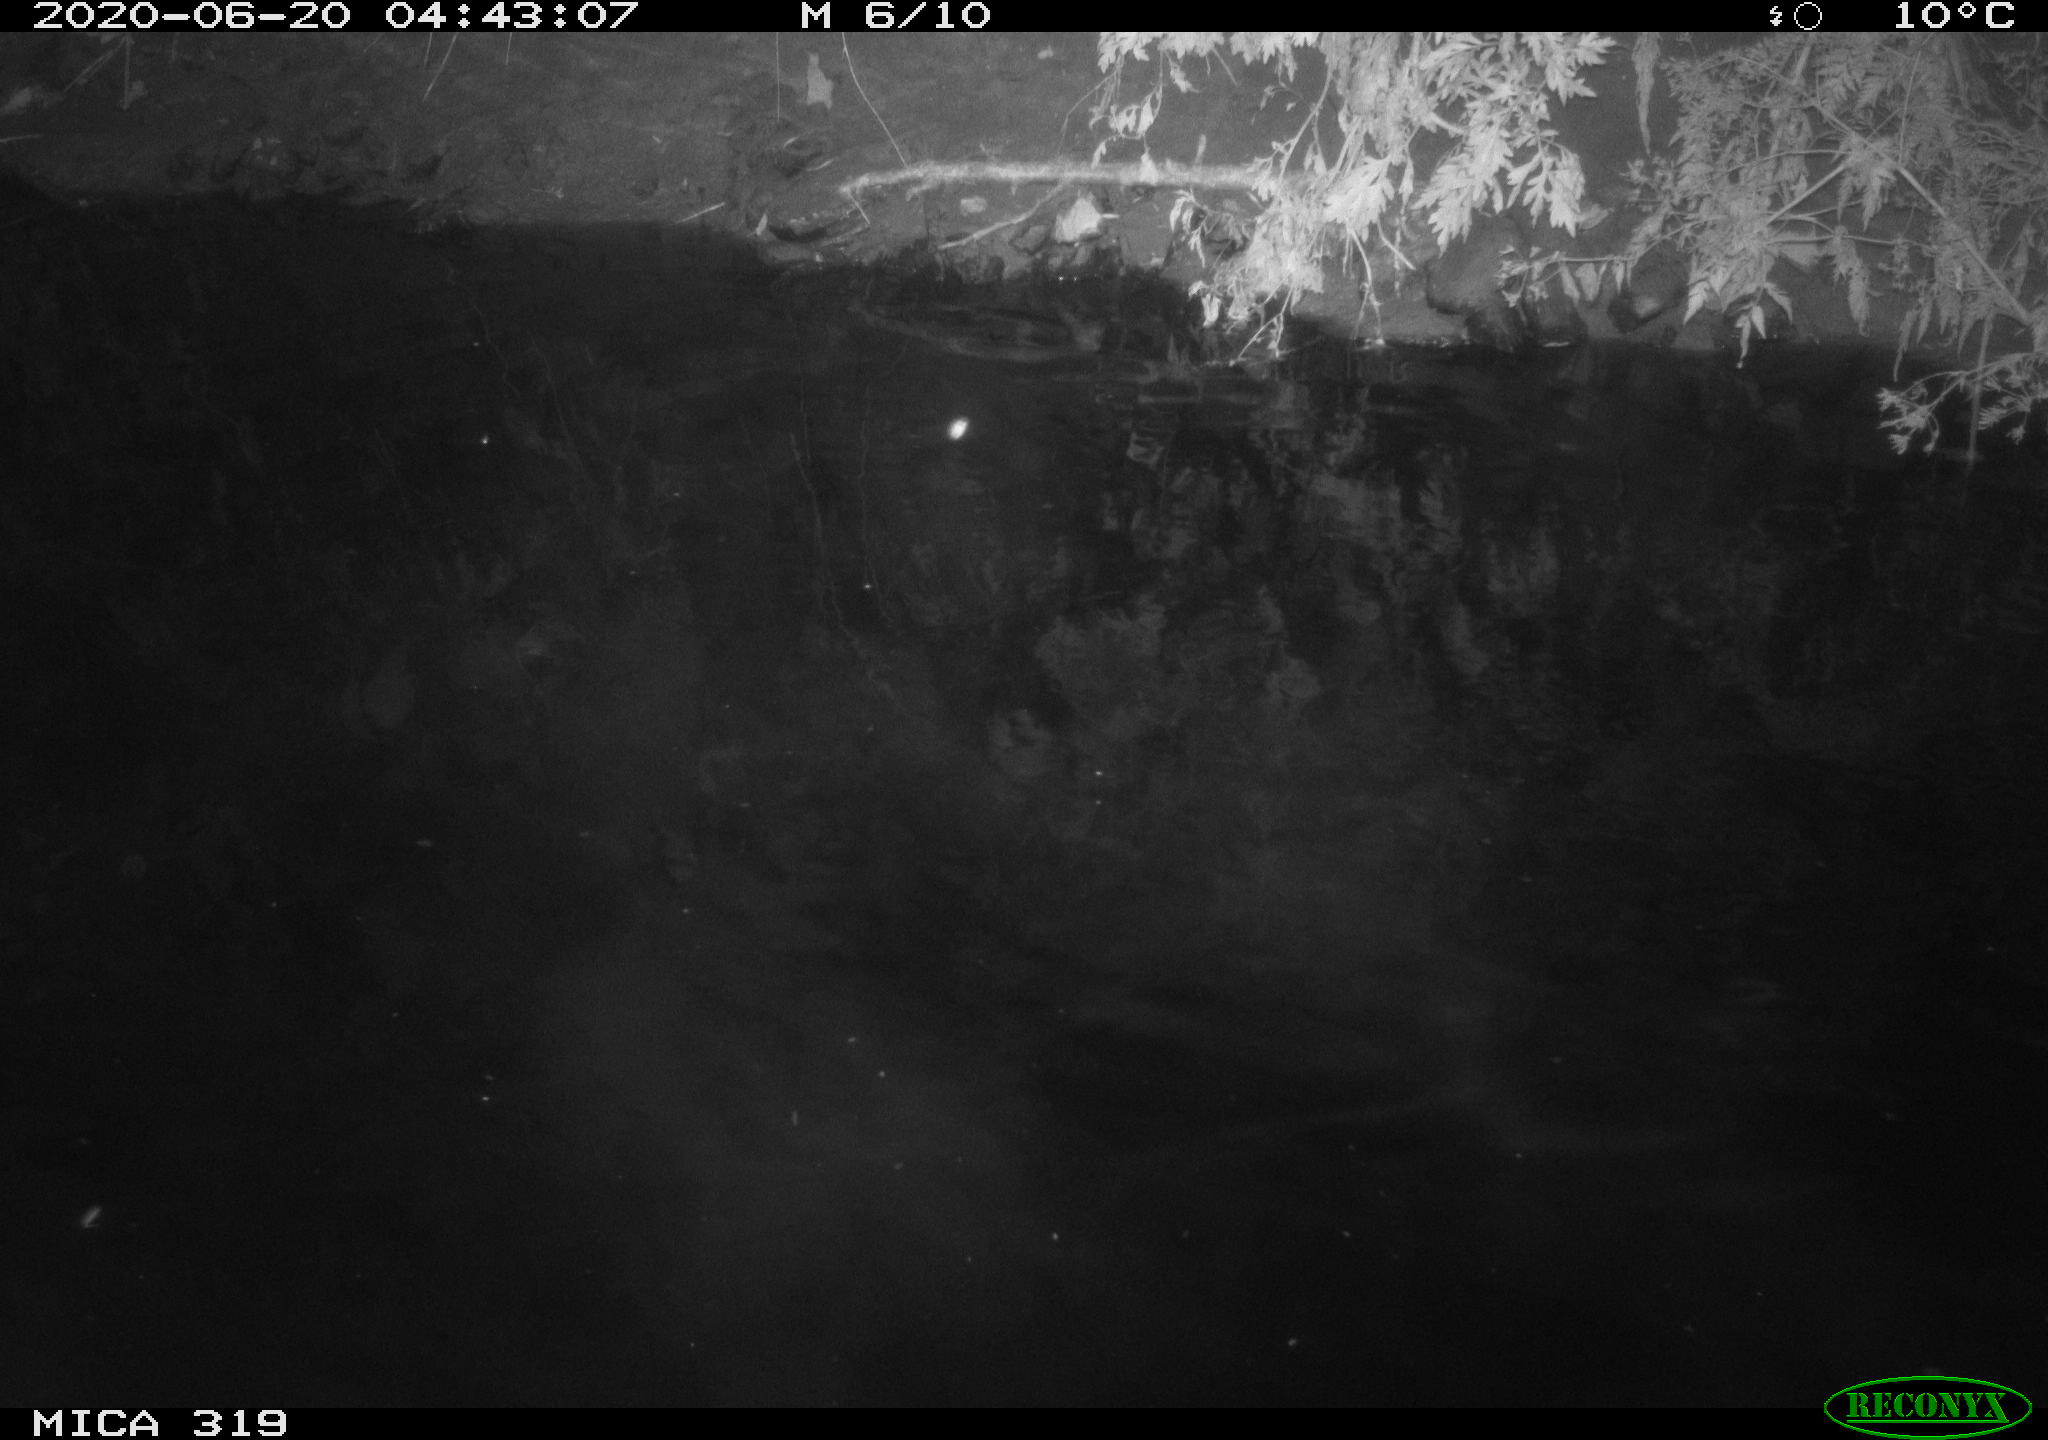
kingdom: Animalia
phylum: Chordata
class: Aves
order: Anseriformes
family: Anatidae
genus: Anas
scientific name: Anas platyrhynchos
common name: Mallard
